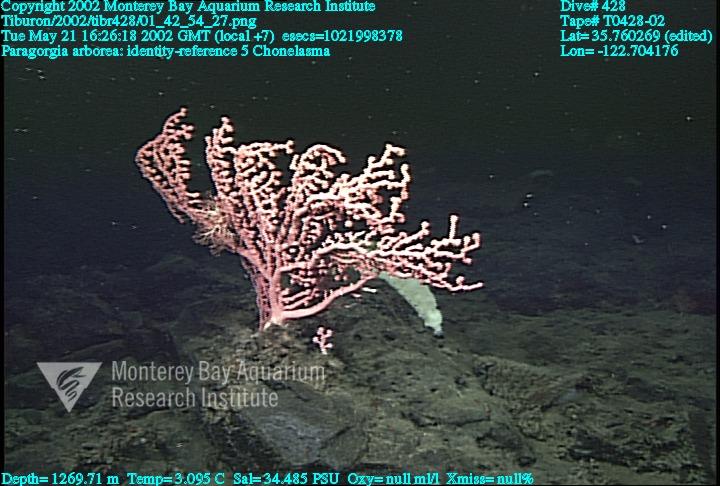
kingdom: Animalia
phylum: Porifera
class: Hexactinellida
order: Sceptrulophora
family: Euretidae
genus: Chonelasma
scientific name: Chonelasma
